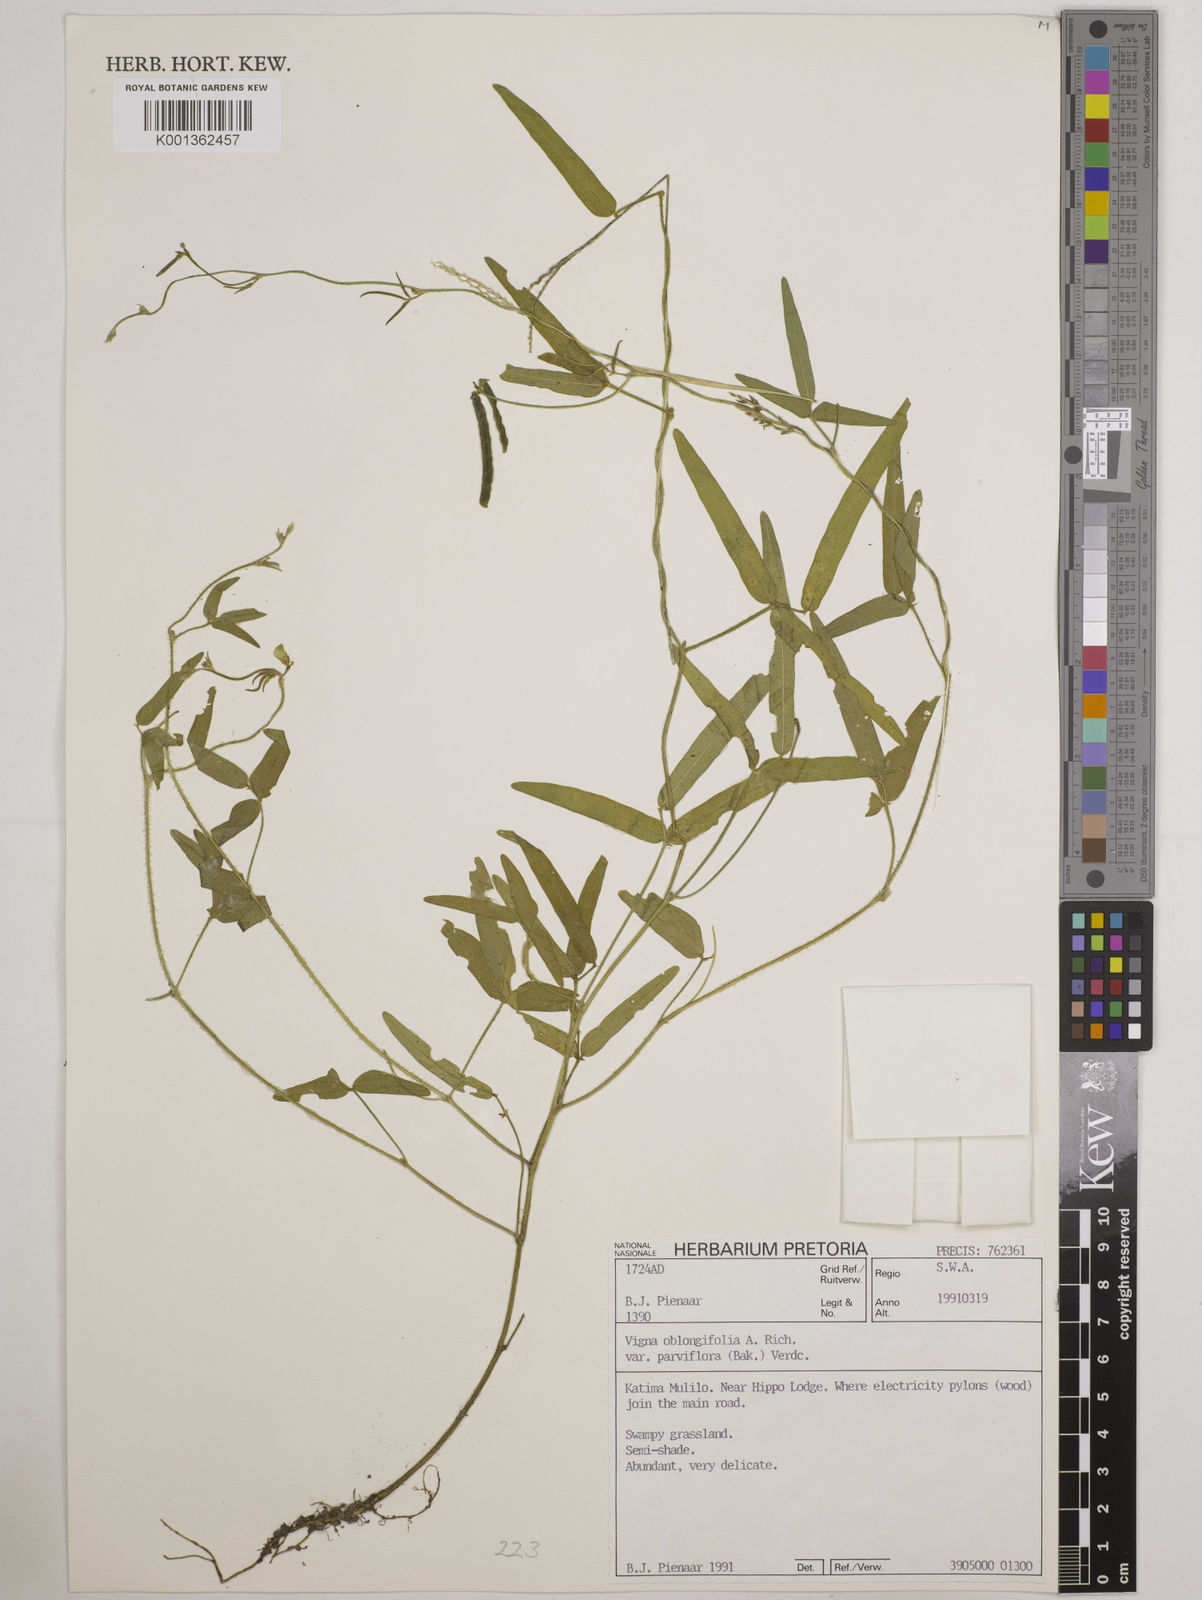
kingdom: Plantae
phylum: Tracheophyta
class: Magnoliopsida
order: Fabales
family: Fabaceae
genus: Vigna
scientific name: Vigna
